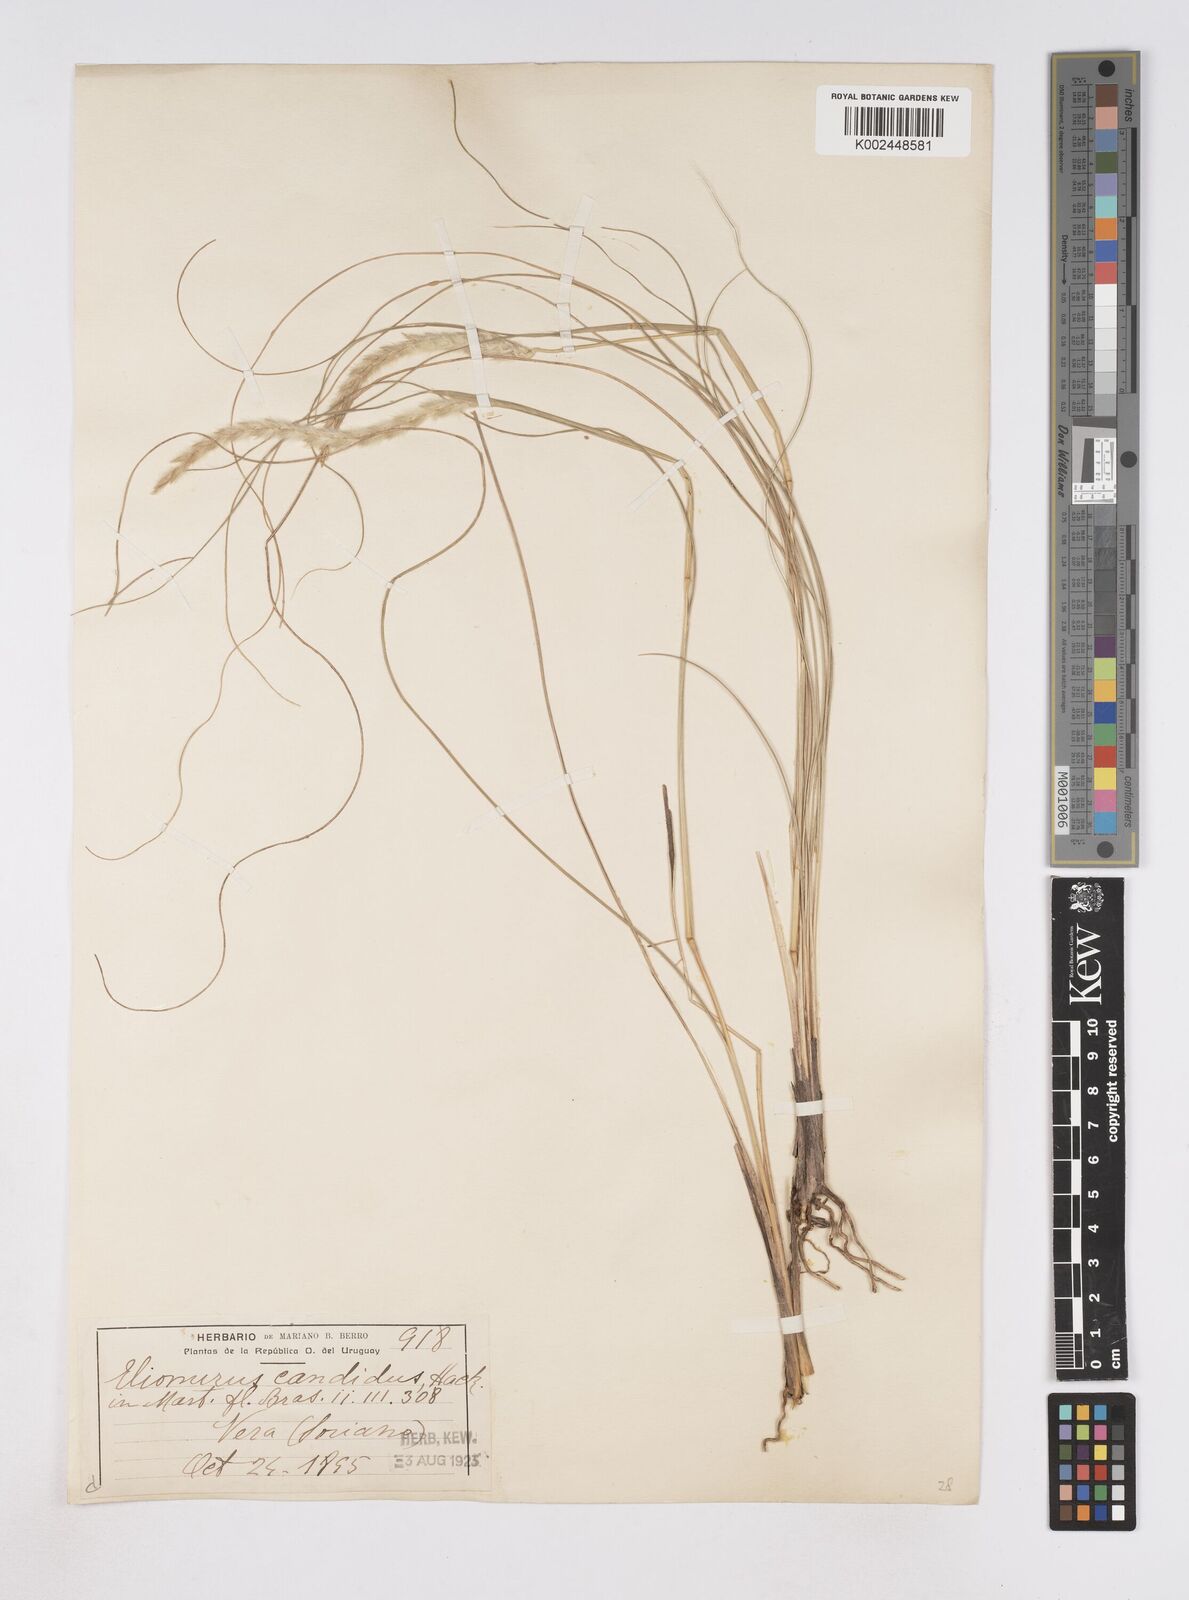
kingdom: Plantae
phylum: Tracheophyta
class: Liliopsida
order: Poales
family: Poaceae
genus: Elionurus
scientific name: Elionurus muticus
